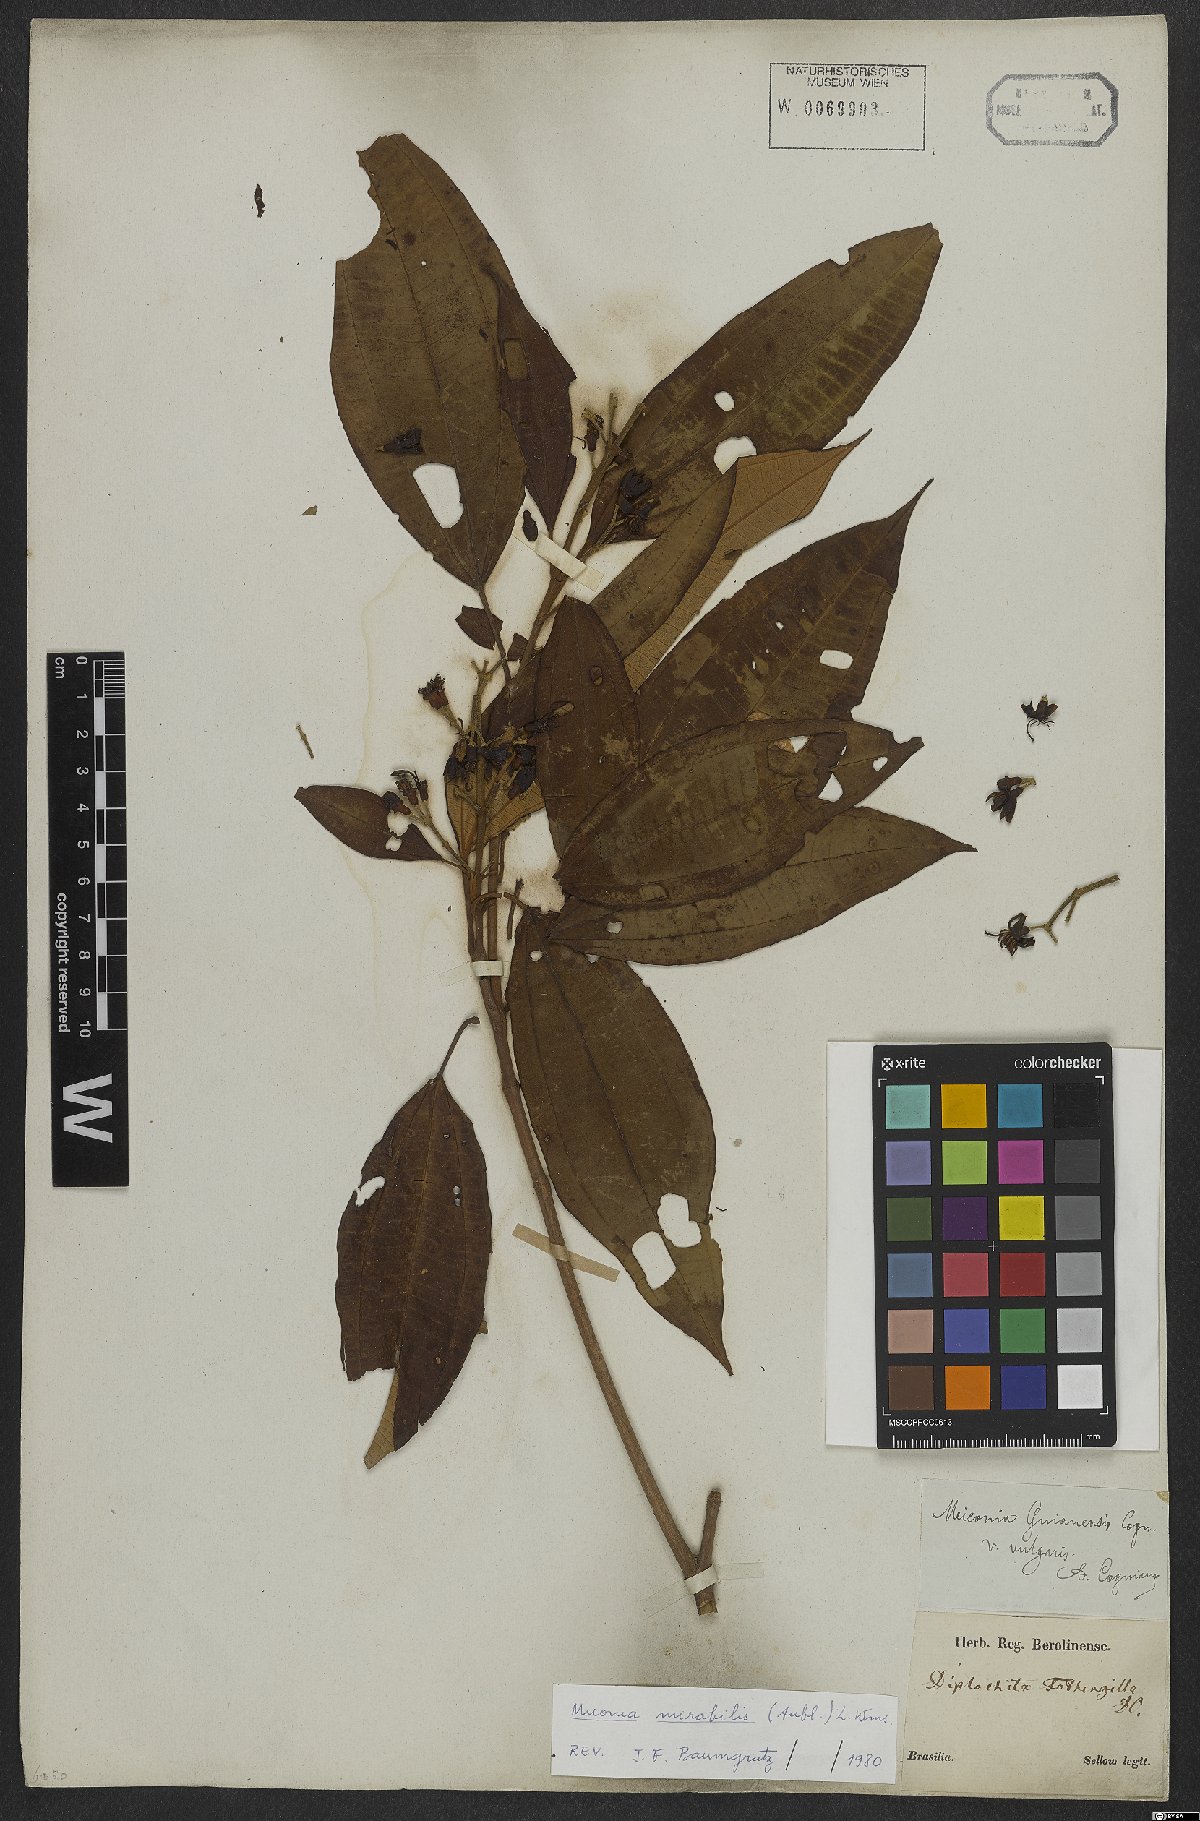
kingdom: Plantae
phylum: Tracheophyta
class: Magnoliopsida
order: Myrtales
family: Melastomataceae
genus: Miconia
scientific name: Miconia mirabilis
